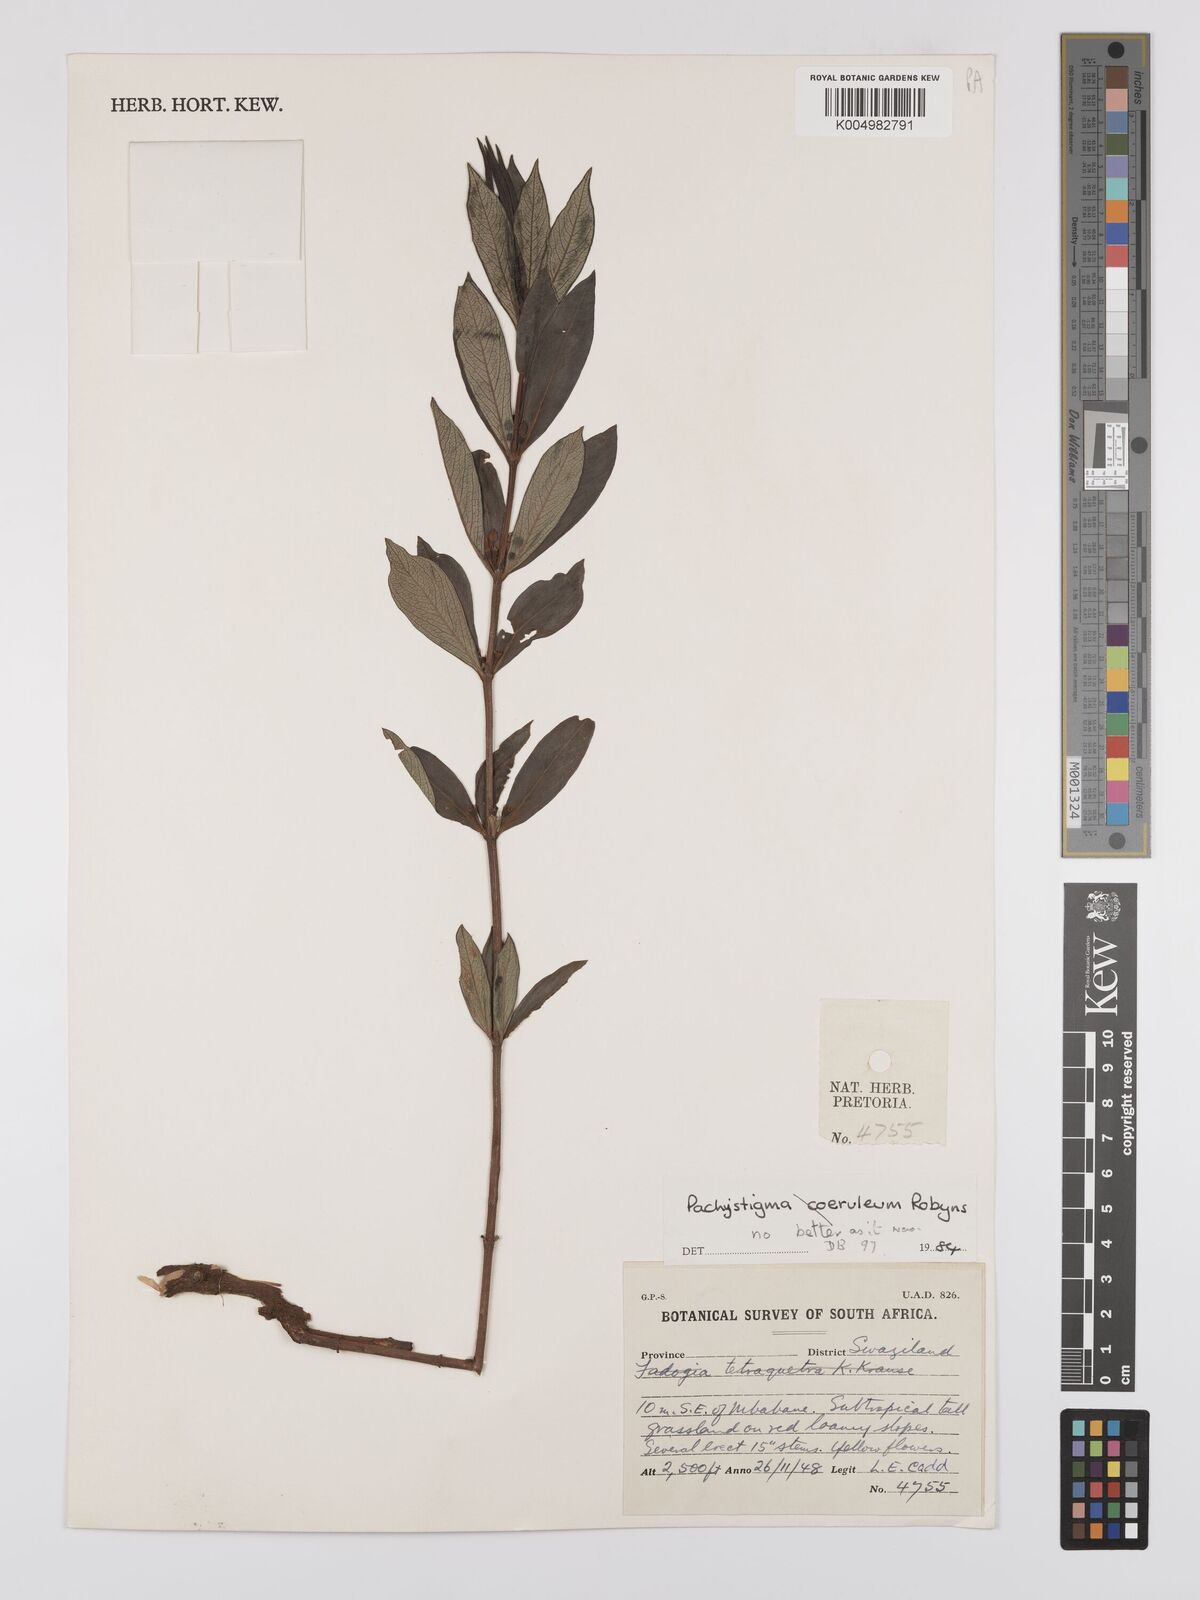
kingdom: Plantae
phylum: Tracheophyta
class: Magnoliopsida
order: Gentianales
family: Rubiaceae
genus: Fadogia
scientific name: Fadogia tetraquetra
